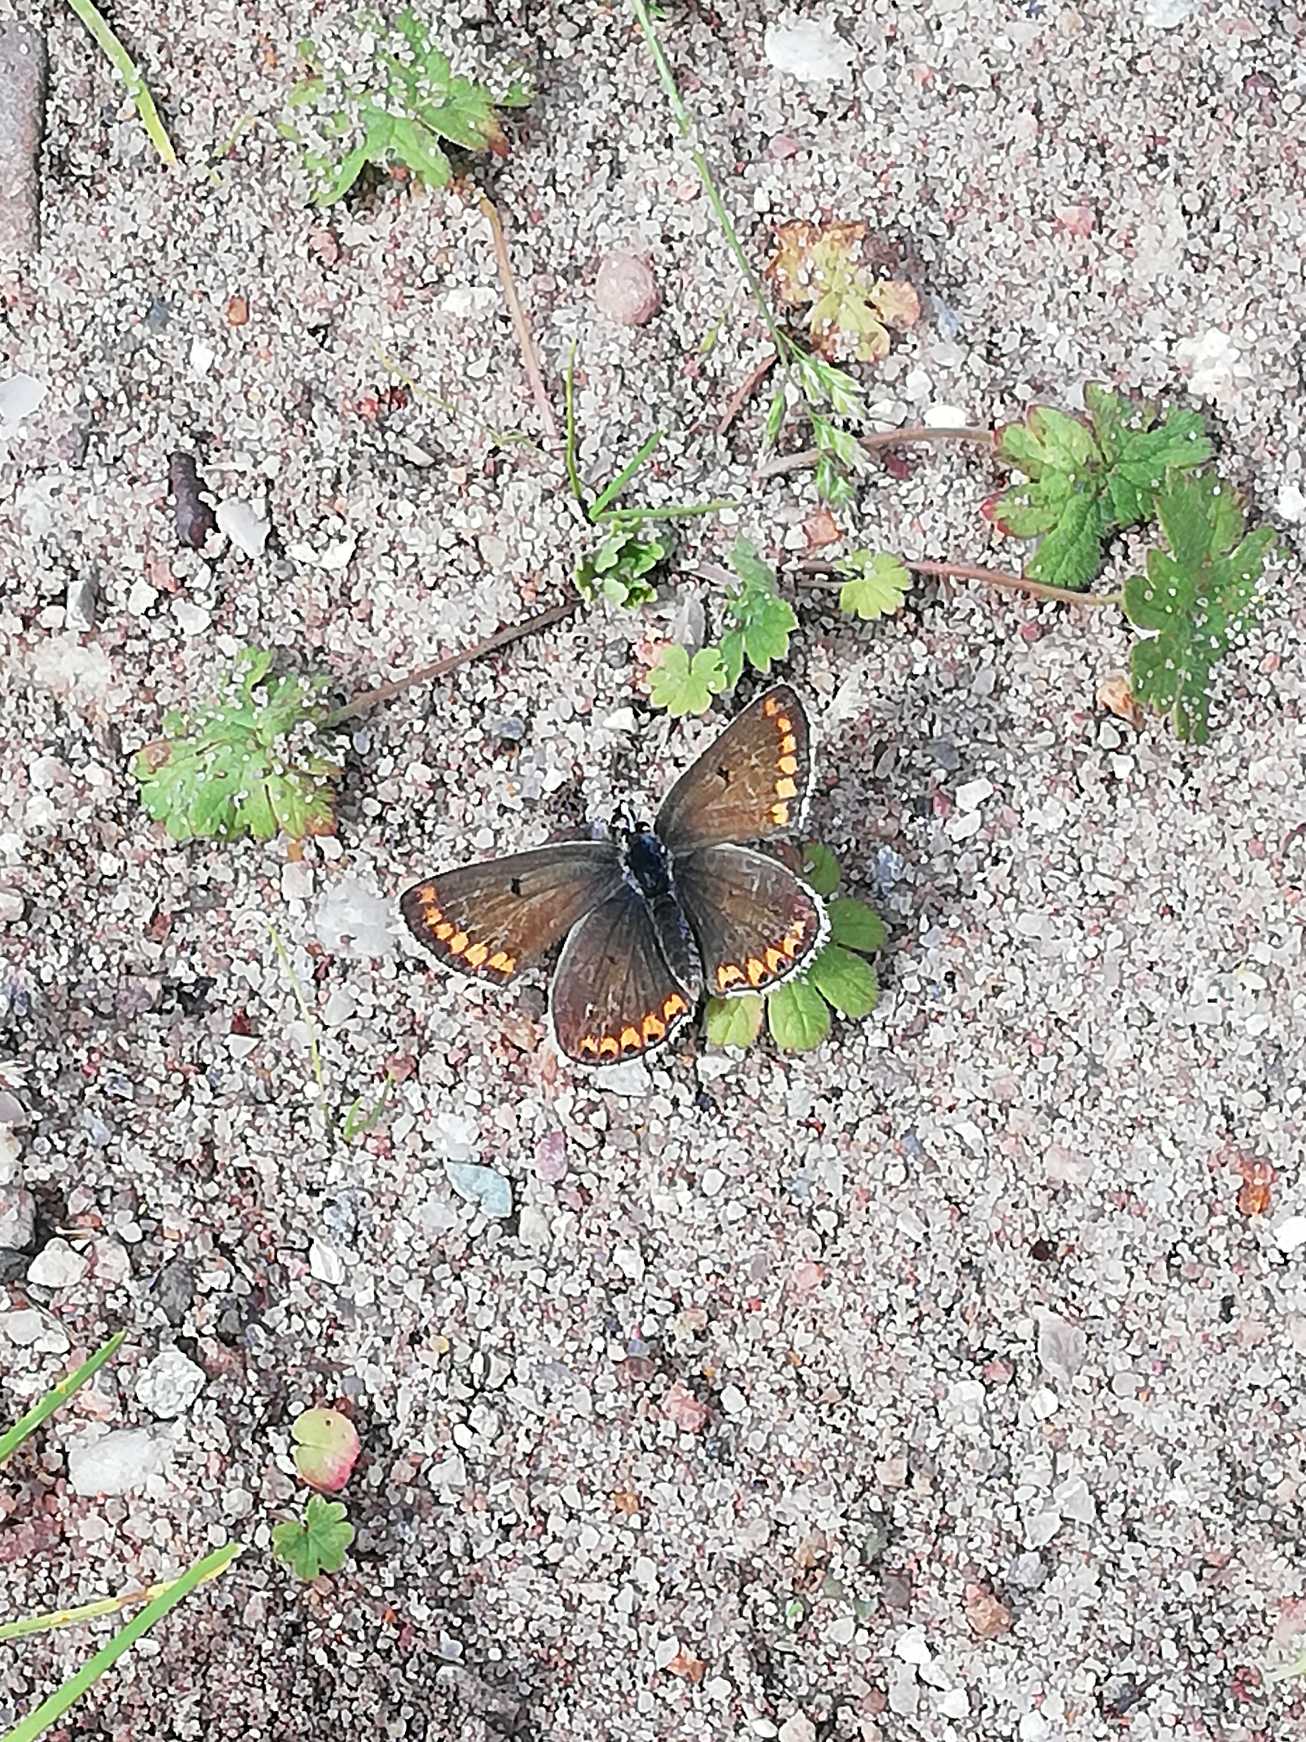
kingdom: Animalia
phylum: Arthropoda
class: Insecta
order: Lepidoptera
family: Lycaenidae
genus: Aricia
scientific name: Aricia agestis
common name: Rødplettet blåfugl
